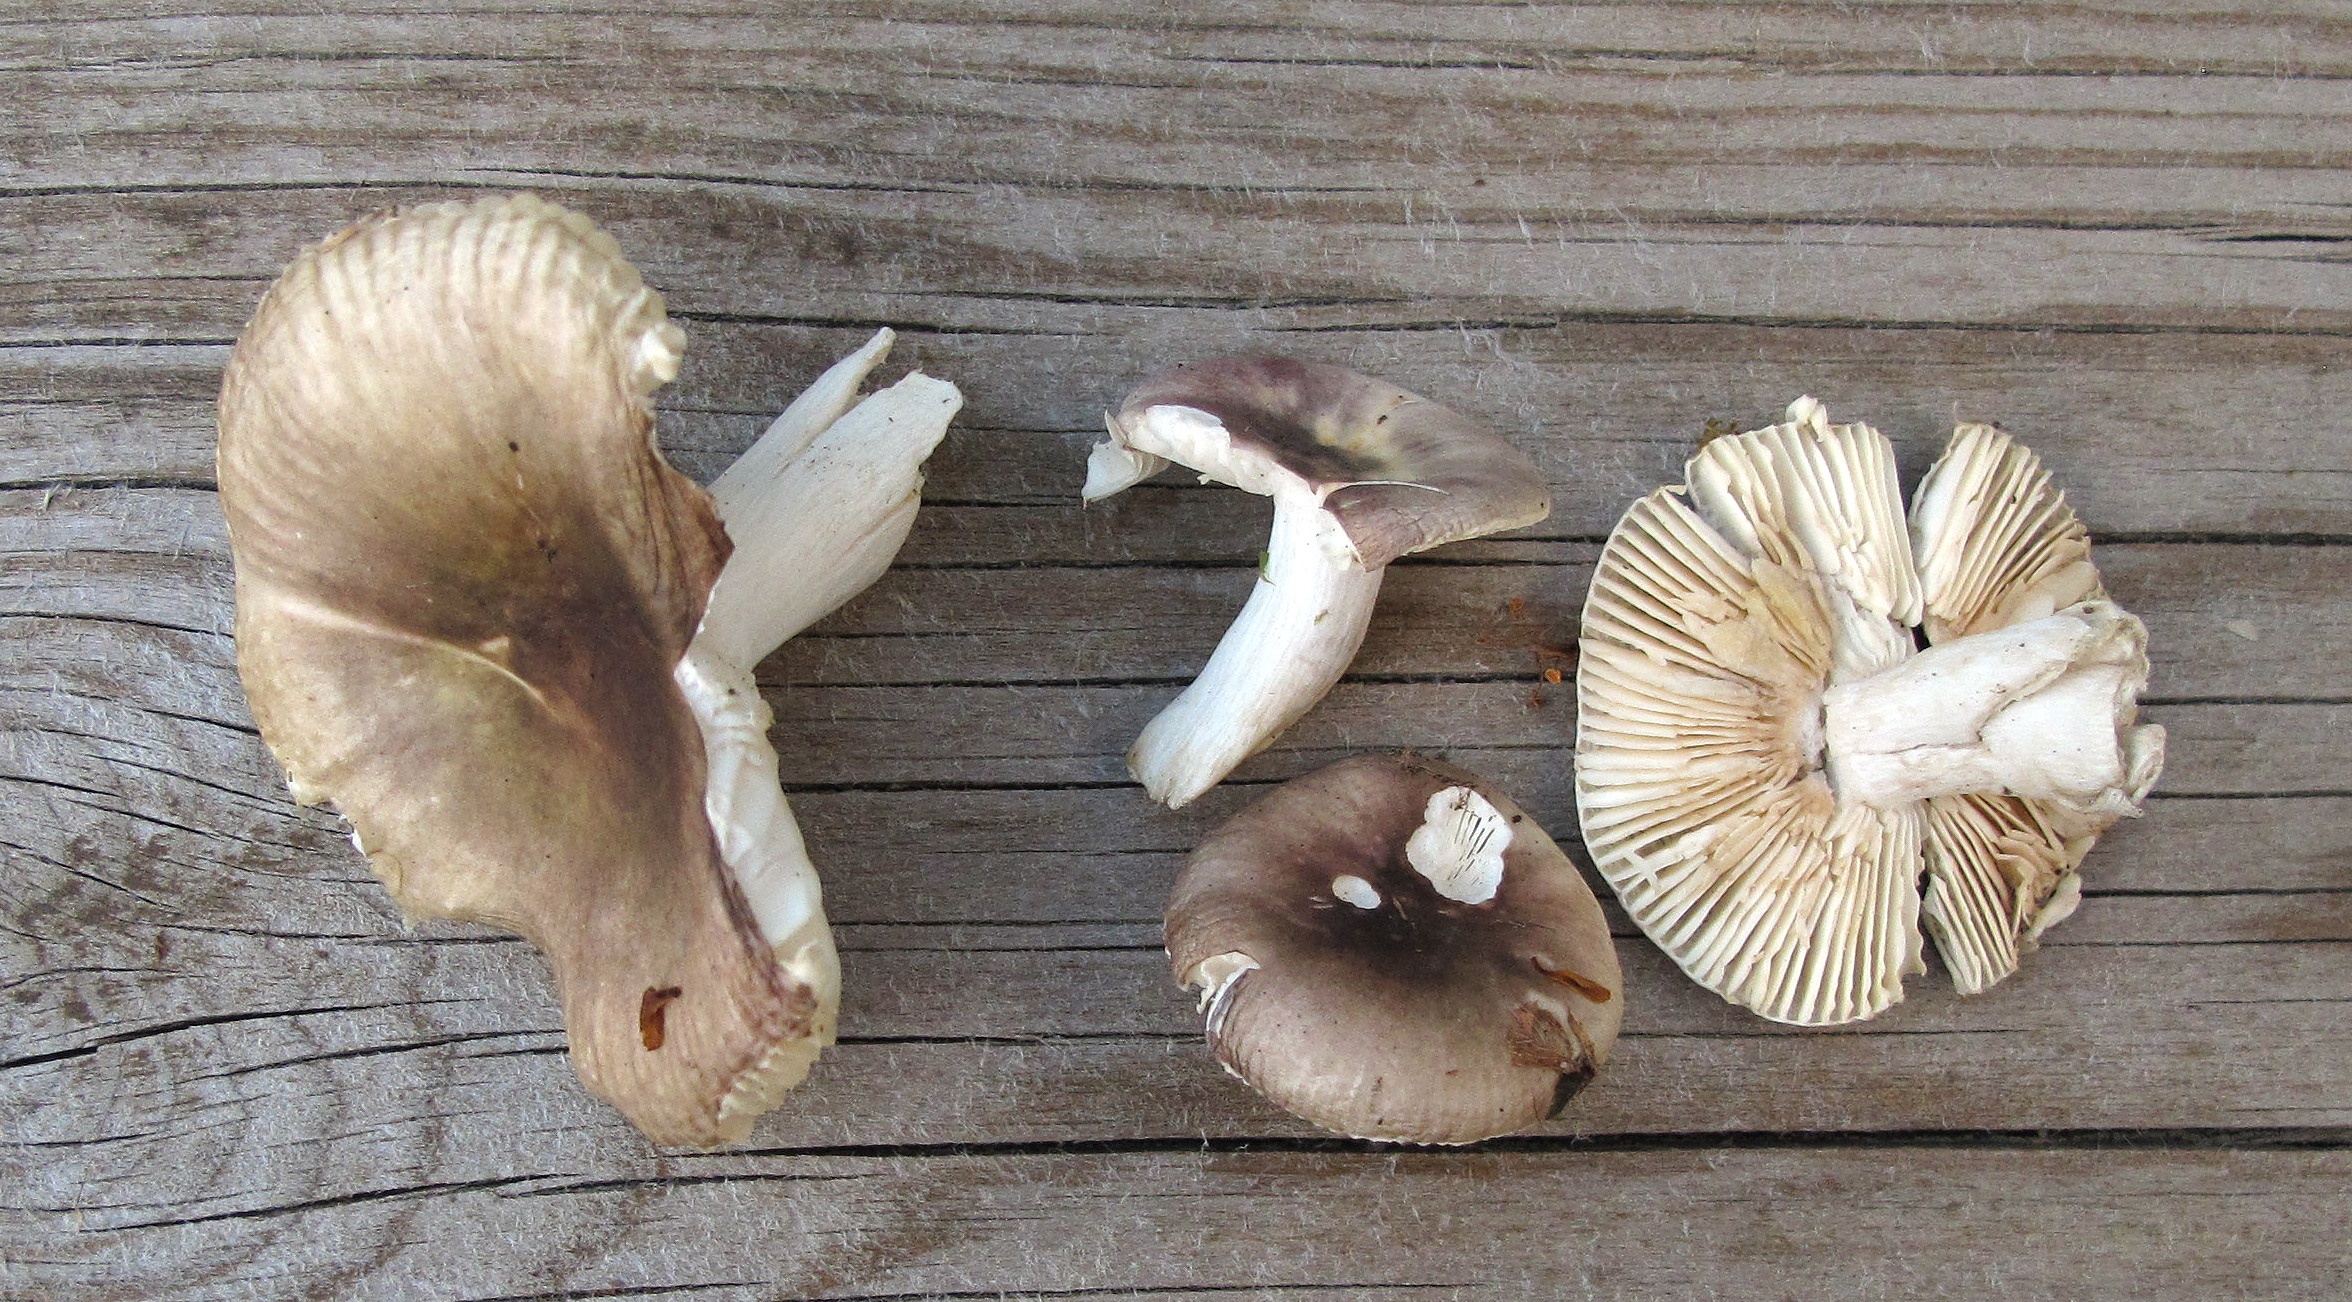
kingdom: Fungi
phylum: Basidiomycota
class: Agaricomycetes
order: Russulales
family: Russulaceae
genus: Russula
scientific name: Russula pelargonia
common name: Pelargonium brittlegill
